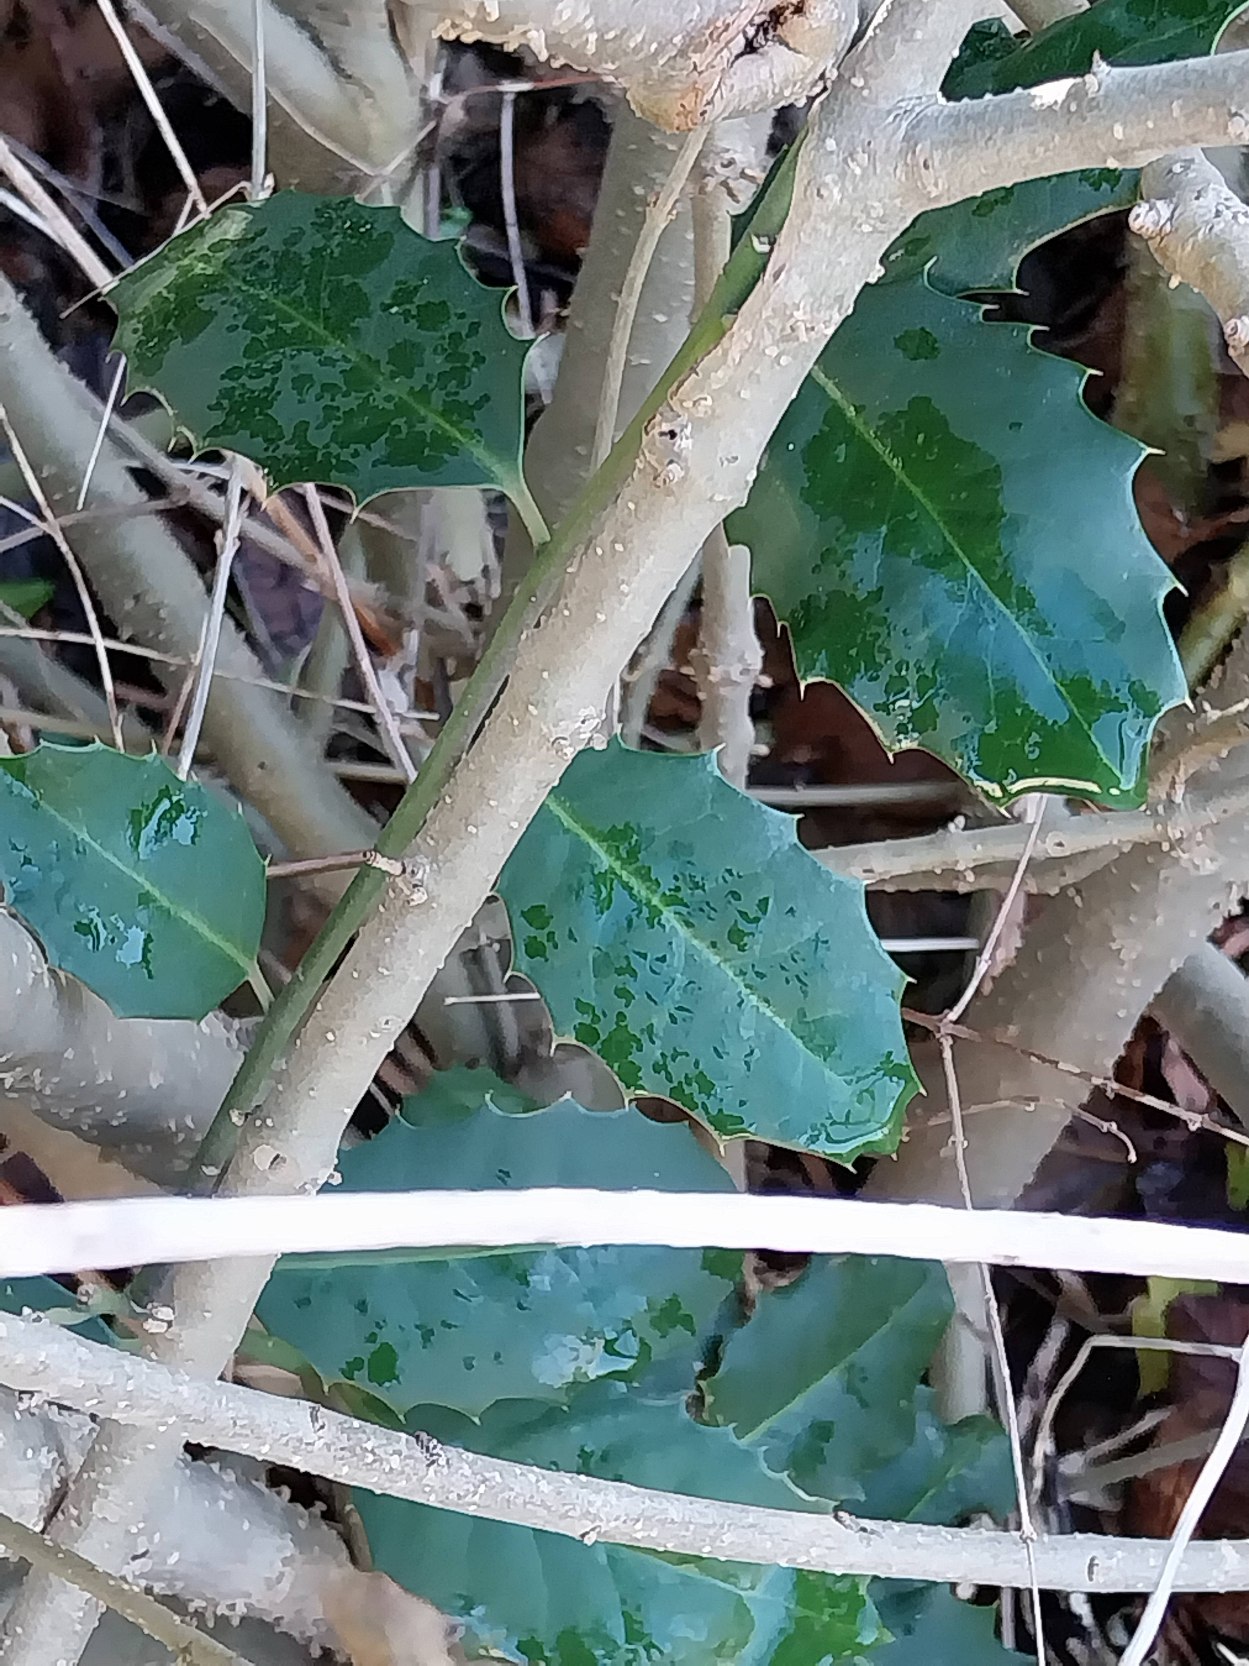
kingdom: Plantae
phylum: Tracheophyta
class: Magnoliopsida
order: Aquifoliales
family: Aquifoliaceae
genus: Ilex
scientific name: Ilex altaclerensis
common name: Storbladet kristtorn
